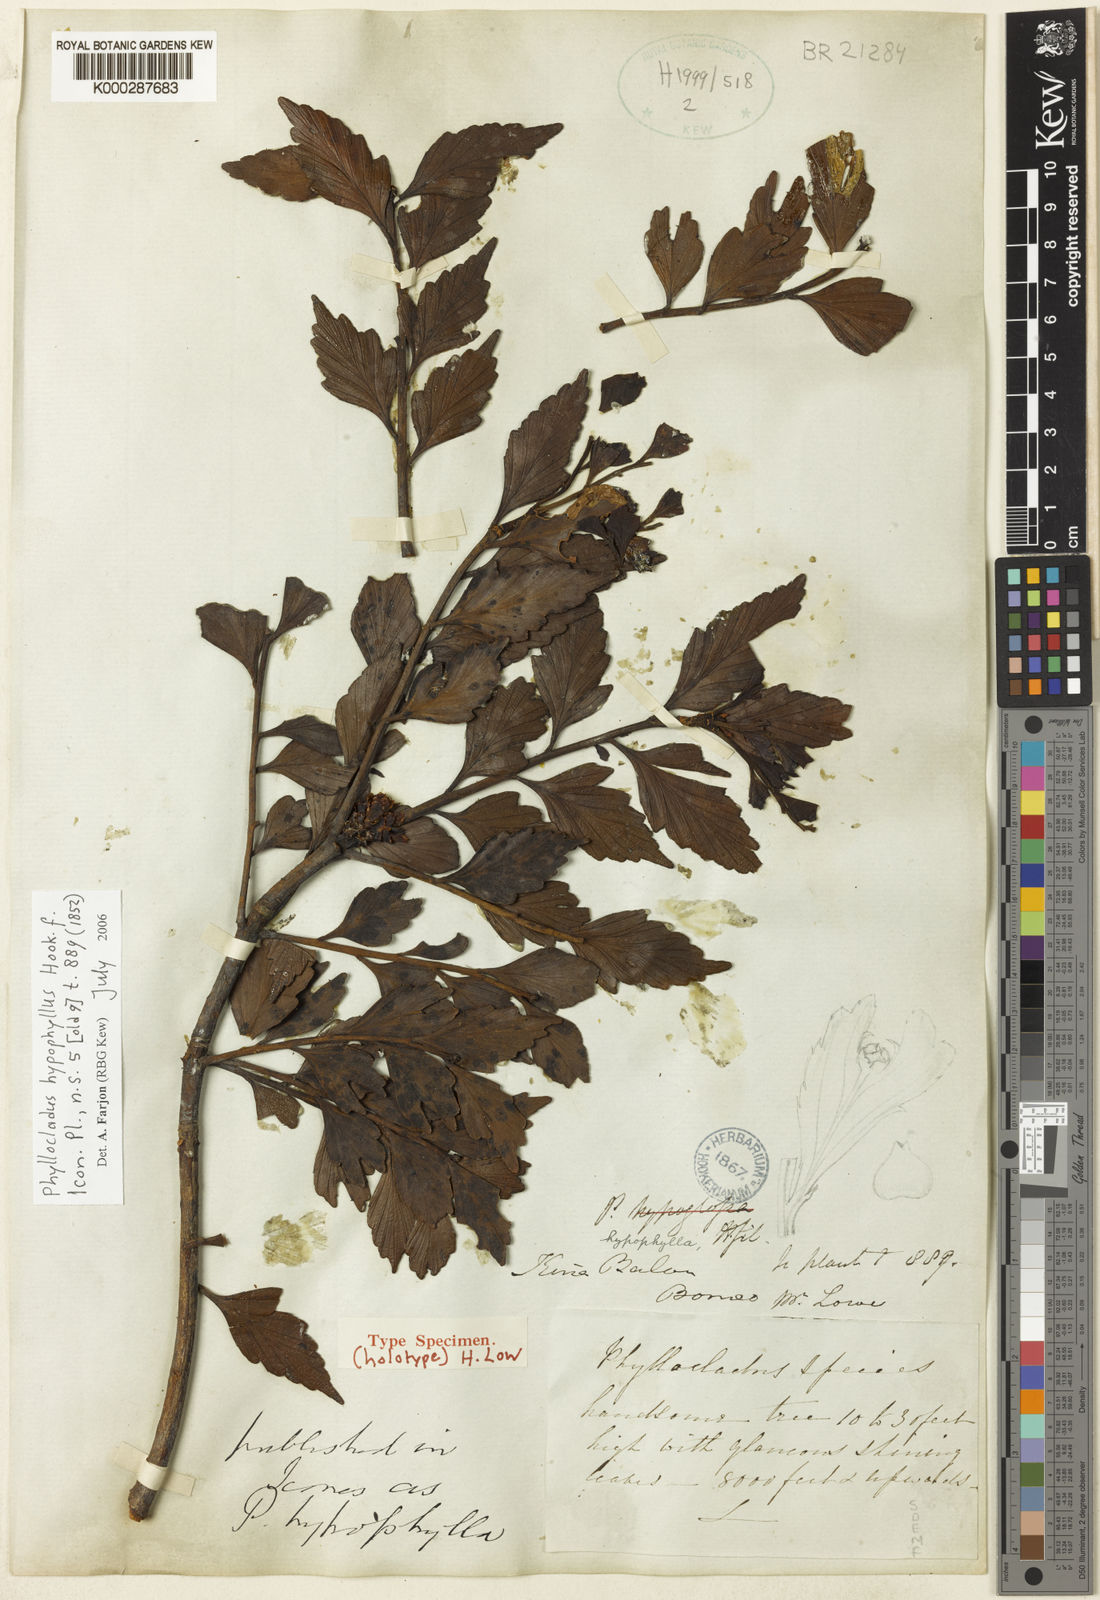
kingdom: Plantae
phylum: Tracheophyta
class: Pinopsida
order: Pinales
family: Phyllocladaceae
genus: Phyllocladus
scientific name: Phyllocladus hypophyllus
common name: Celery pine
